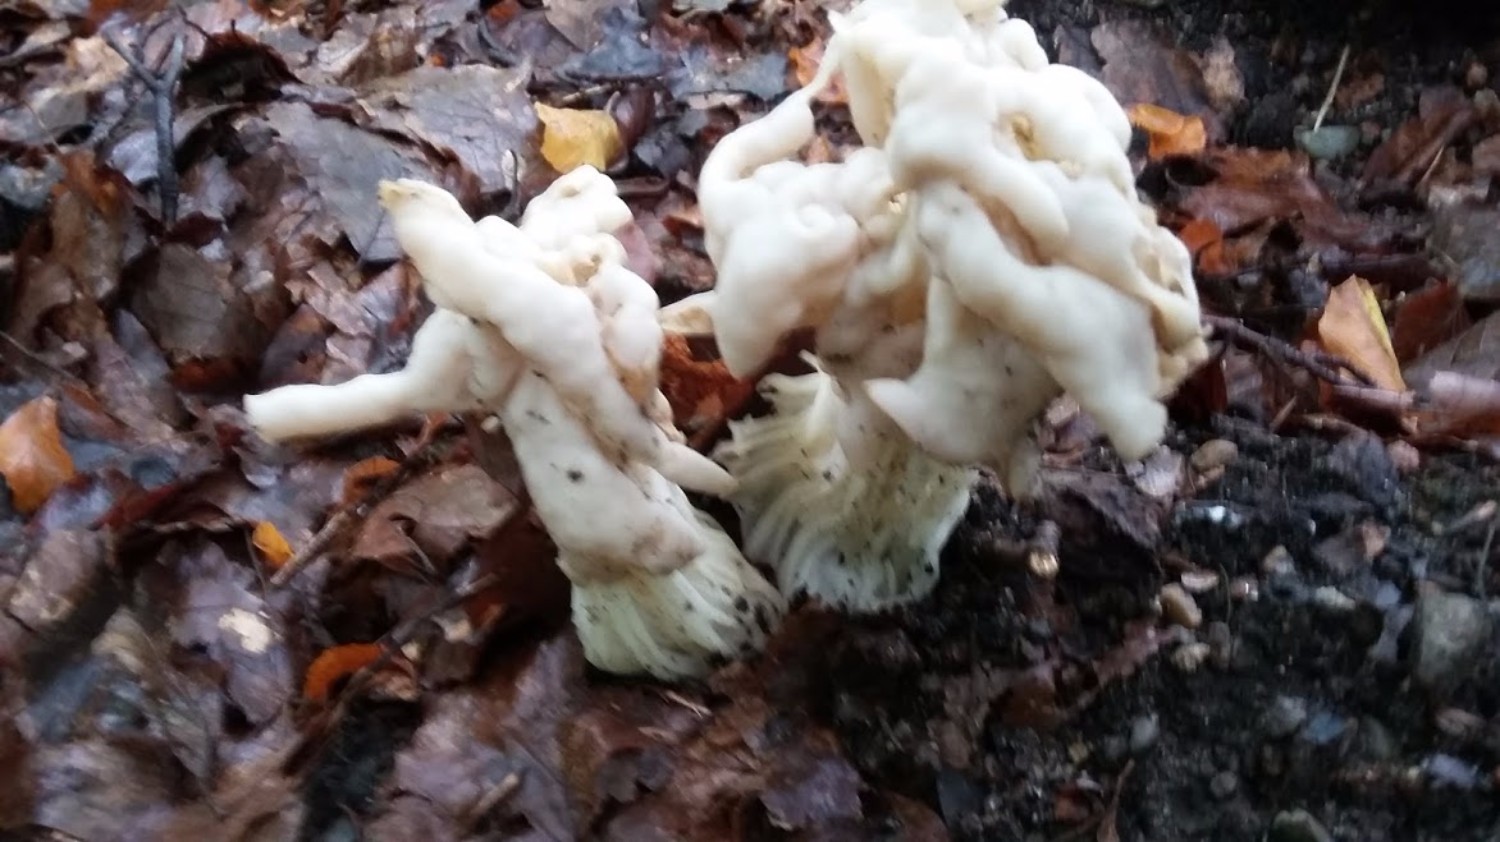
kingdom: Fungi
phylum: Ascomycota
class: Pezizomycetes
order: Pezizales
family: Helvellaceae
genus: Helvella
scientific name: Helvella crispa
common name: kruset foldhat
